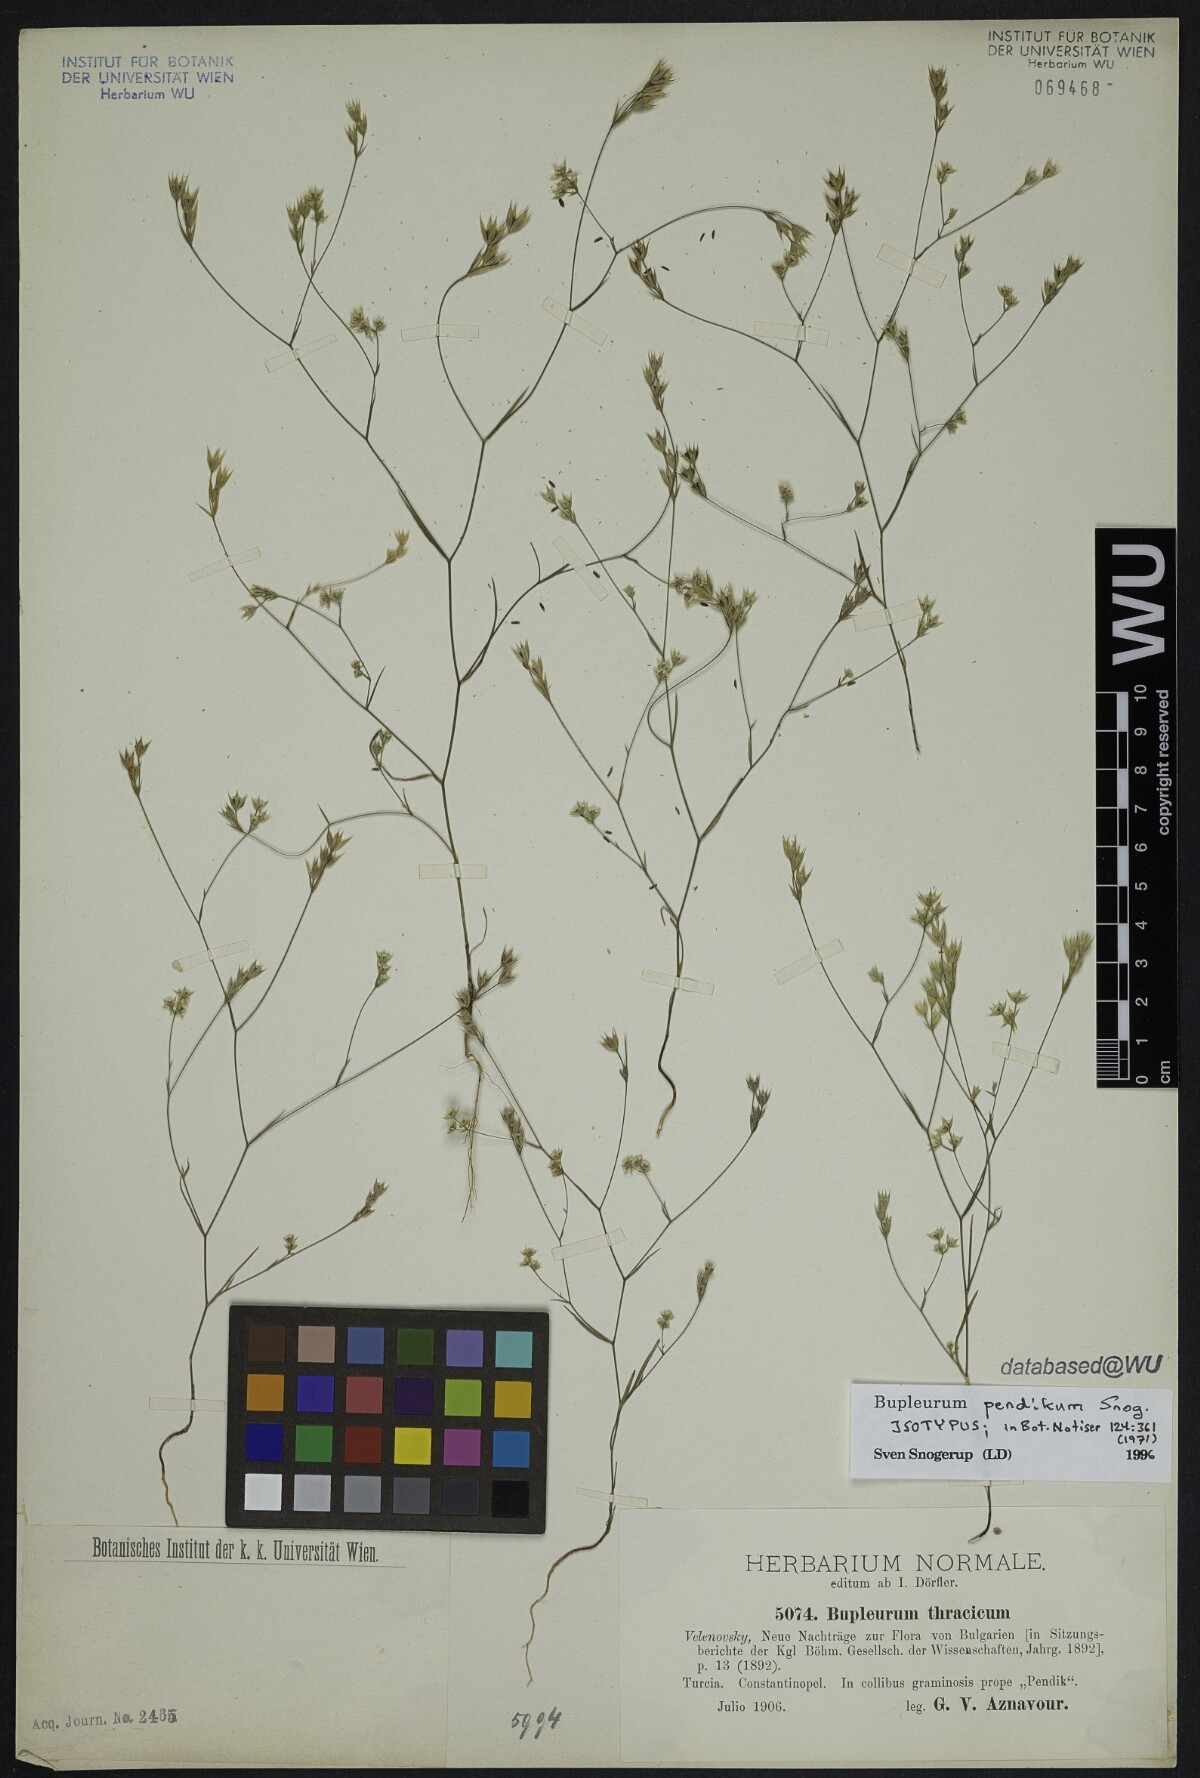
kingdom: Plantae
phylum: Tracheophyta
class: Magnoliopsida
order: Apiales
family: Apiaceae
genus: Bupleurum
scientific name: Bupleurum pendikum
